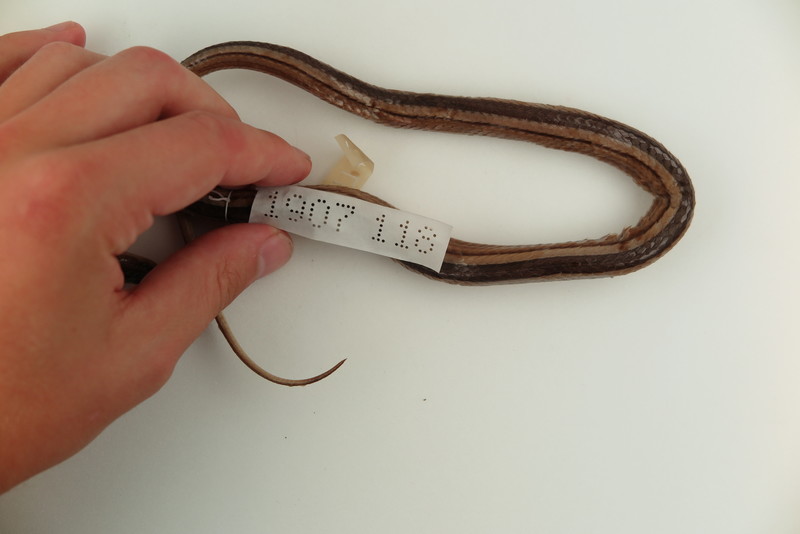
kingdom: Animalia
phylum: Chordata
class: Squamata
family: Psammophiidae
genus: Mimophis
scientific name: Mimophis
